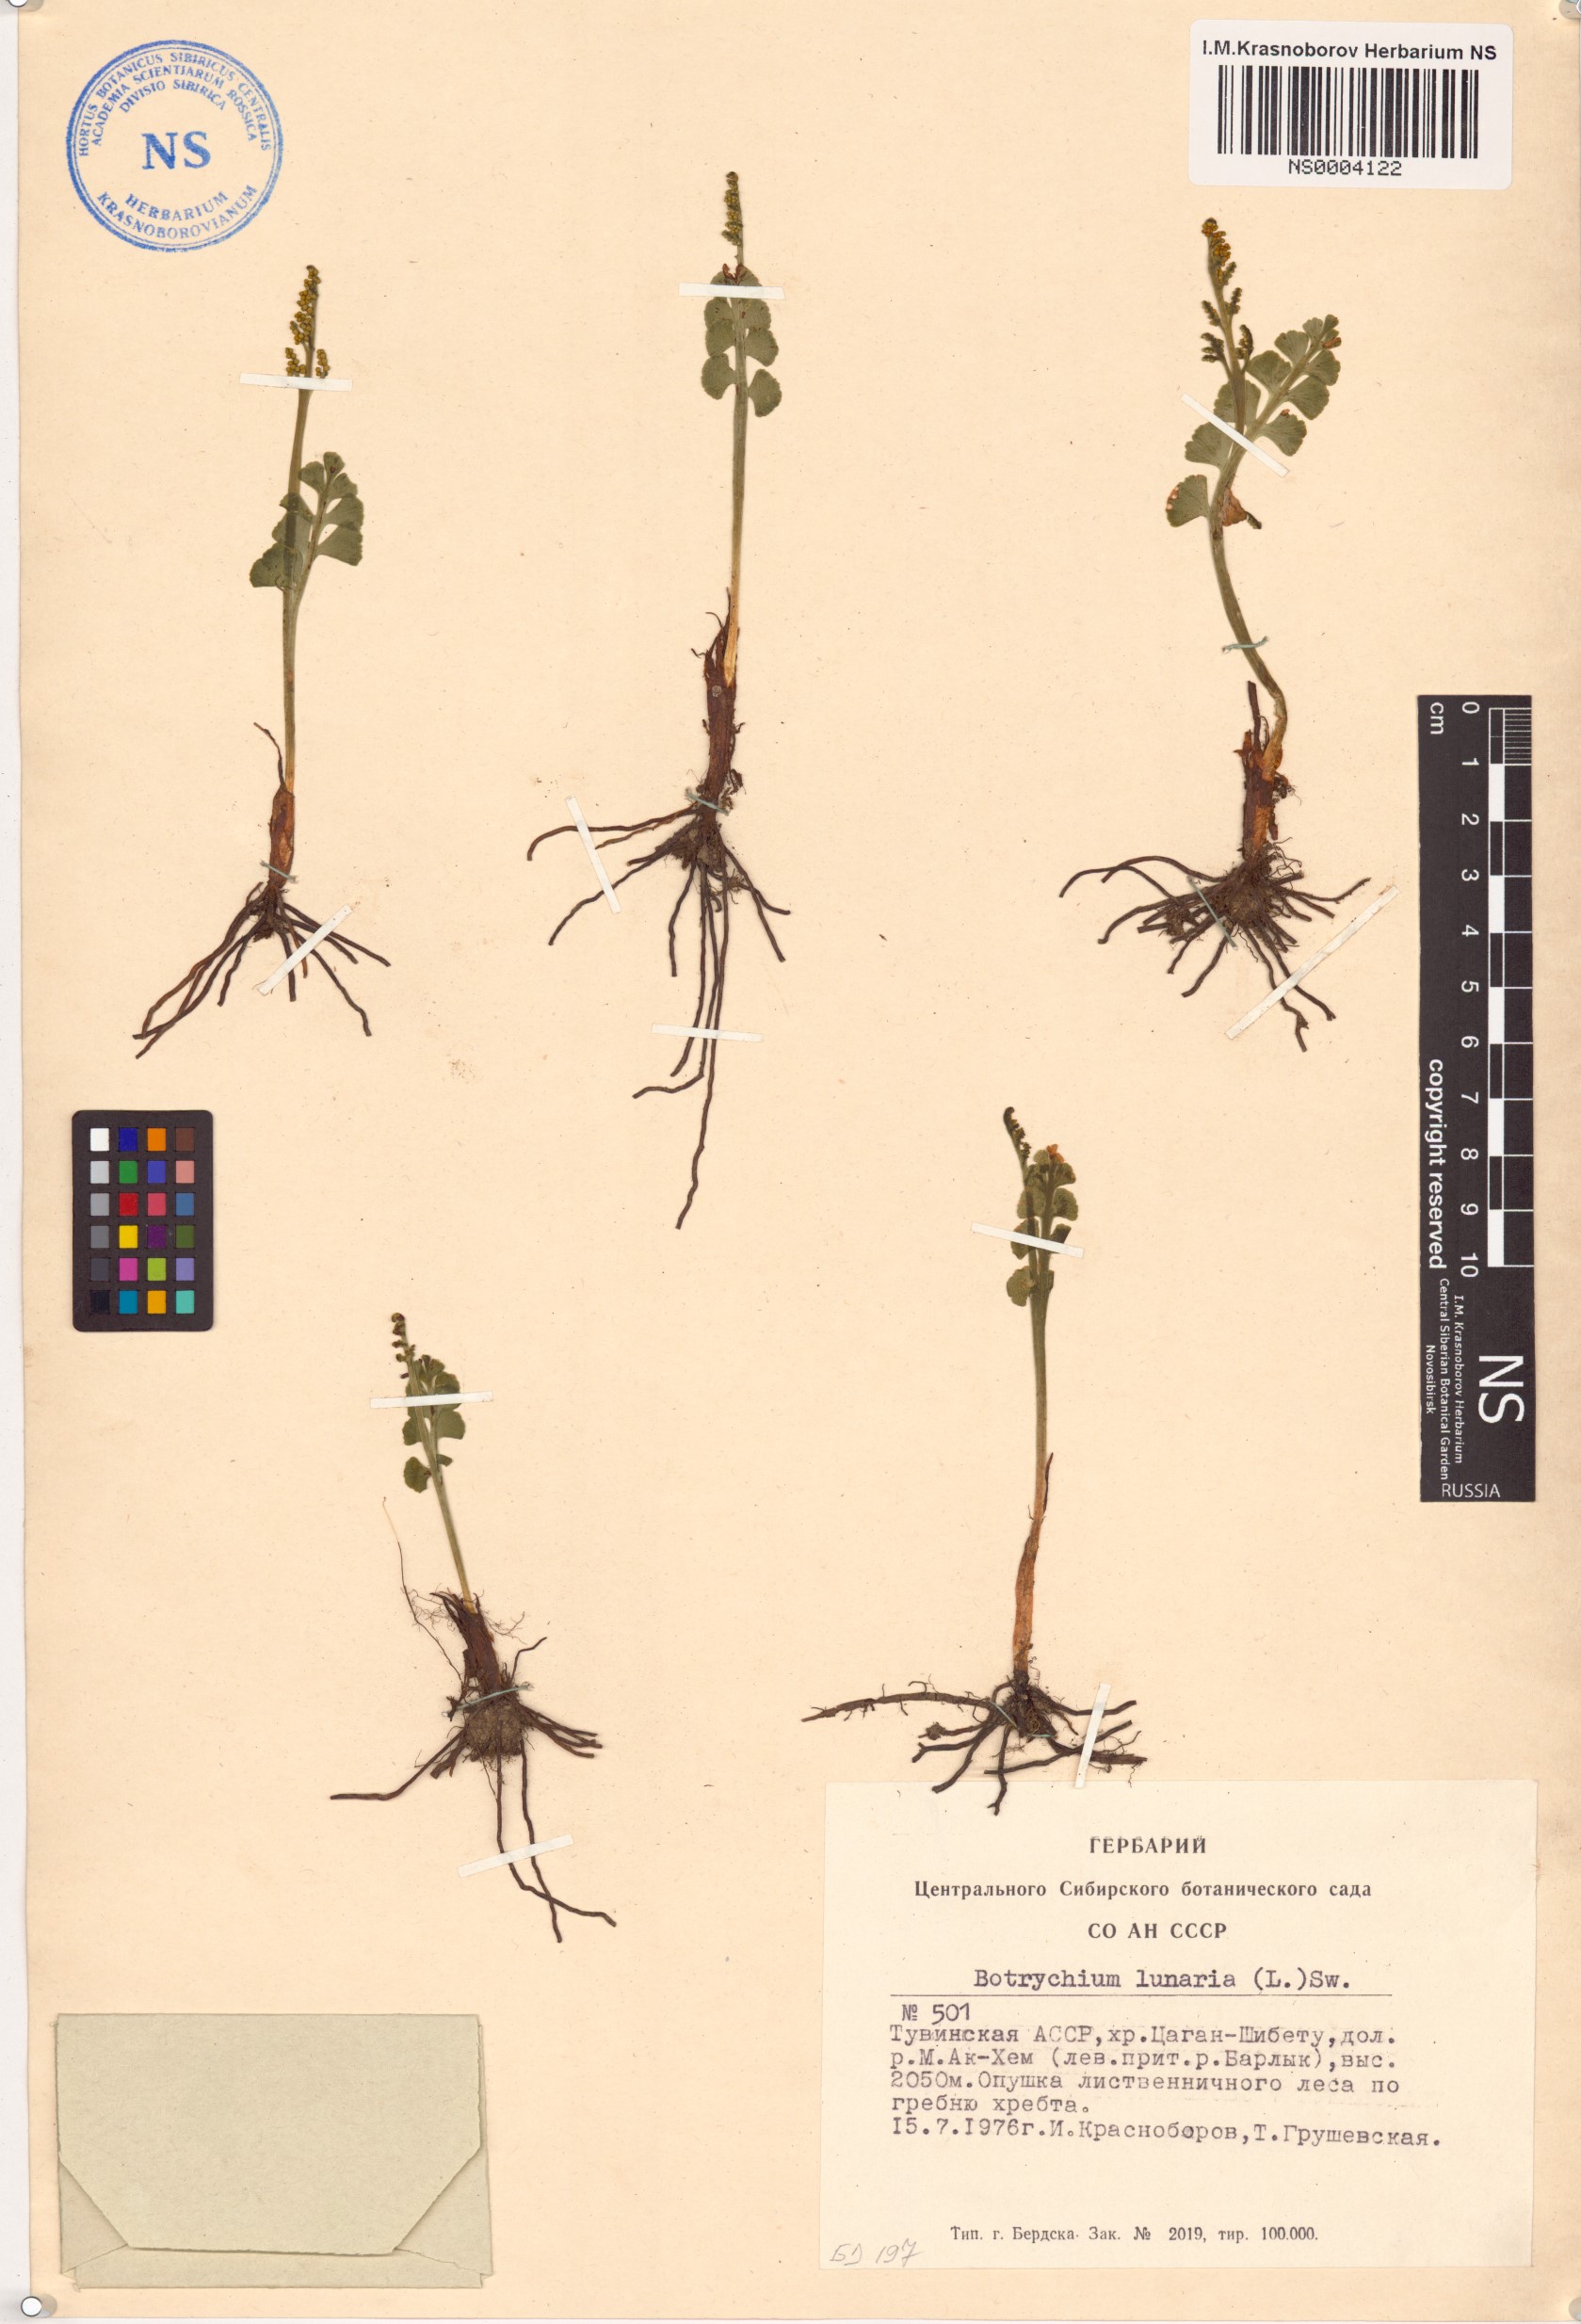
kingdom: Plantae
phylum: Tracheophyta
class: Polypodiopsida
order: Ophioglossales
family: Ophioglossaceae
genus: Botrychium
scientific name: Botrychium lunaria
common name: Moonwort
